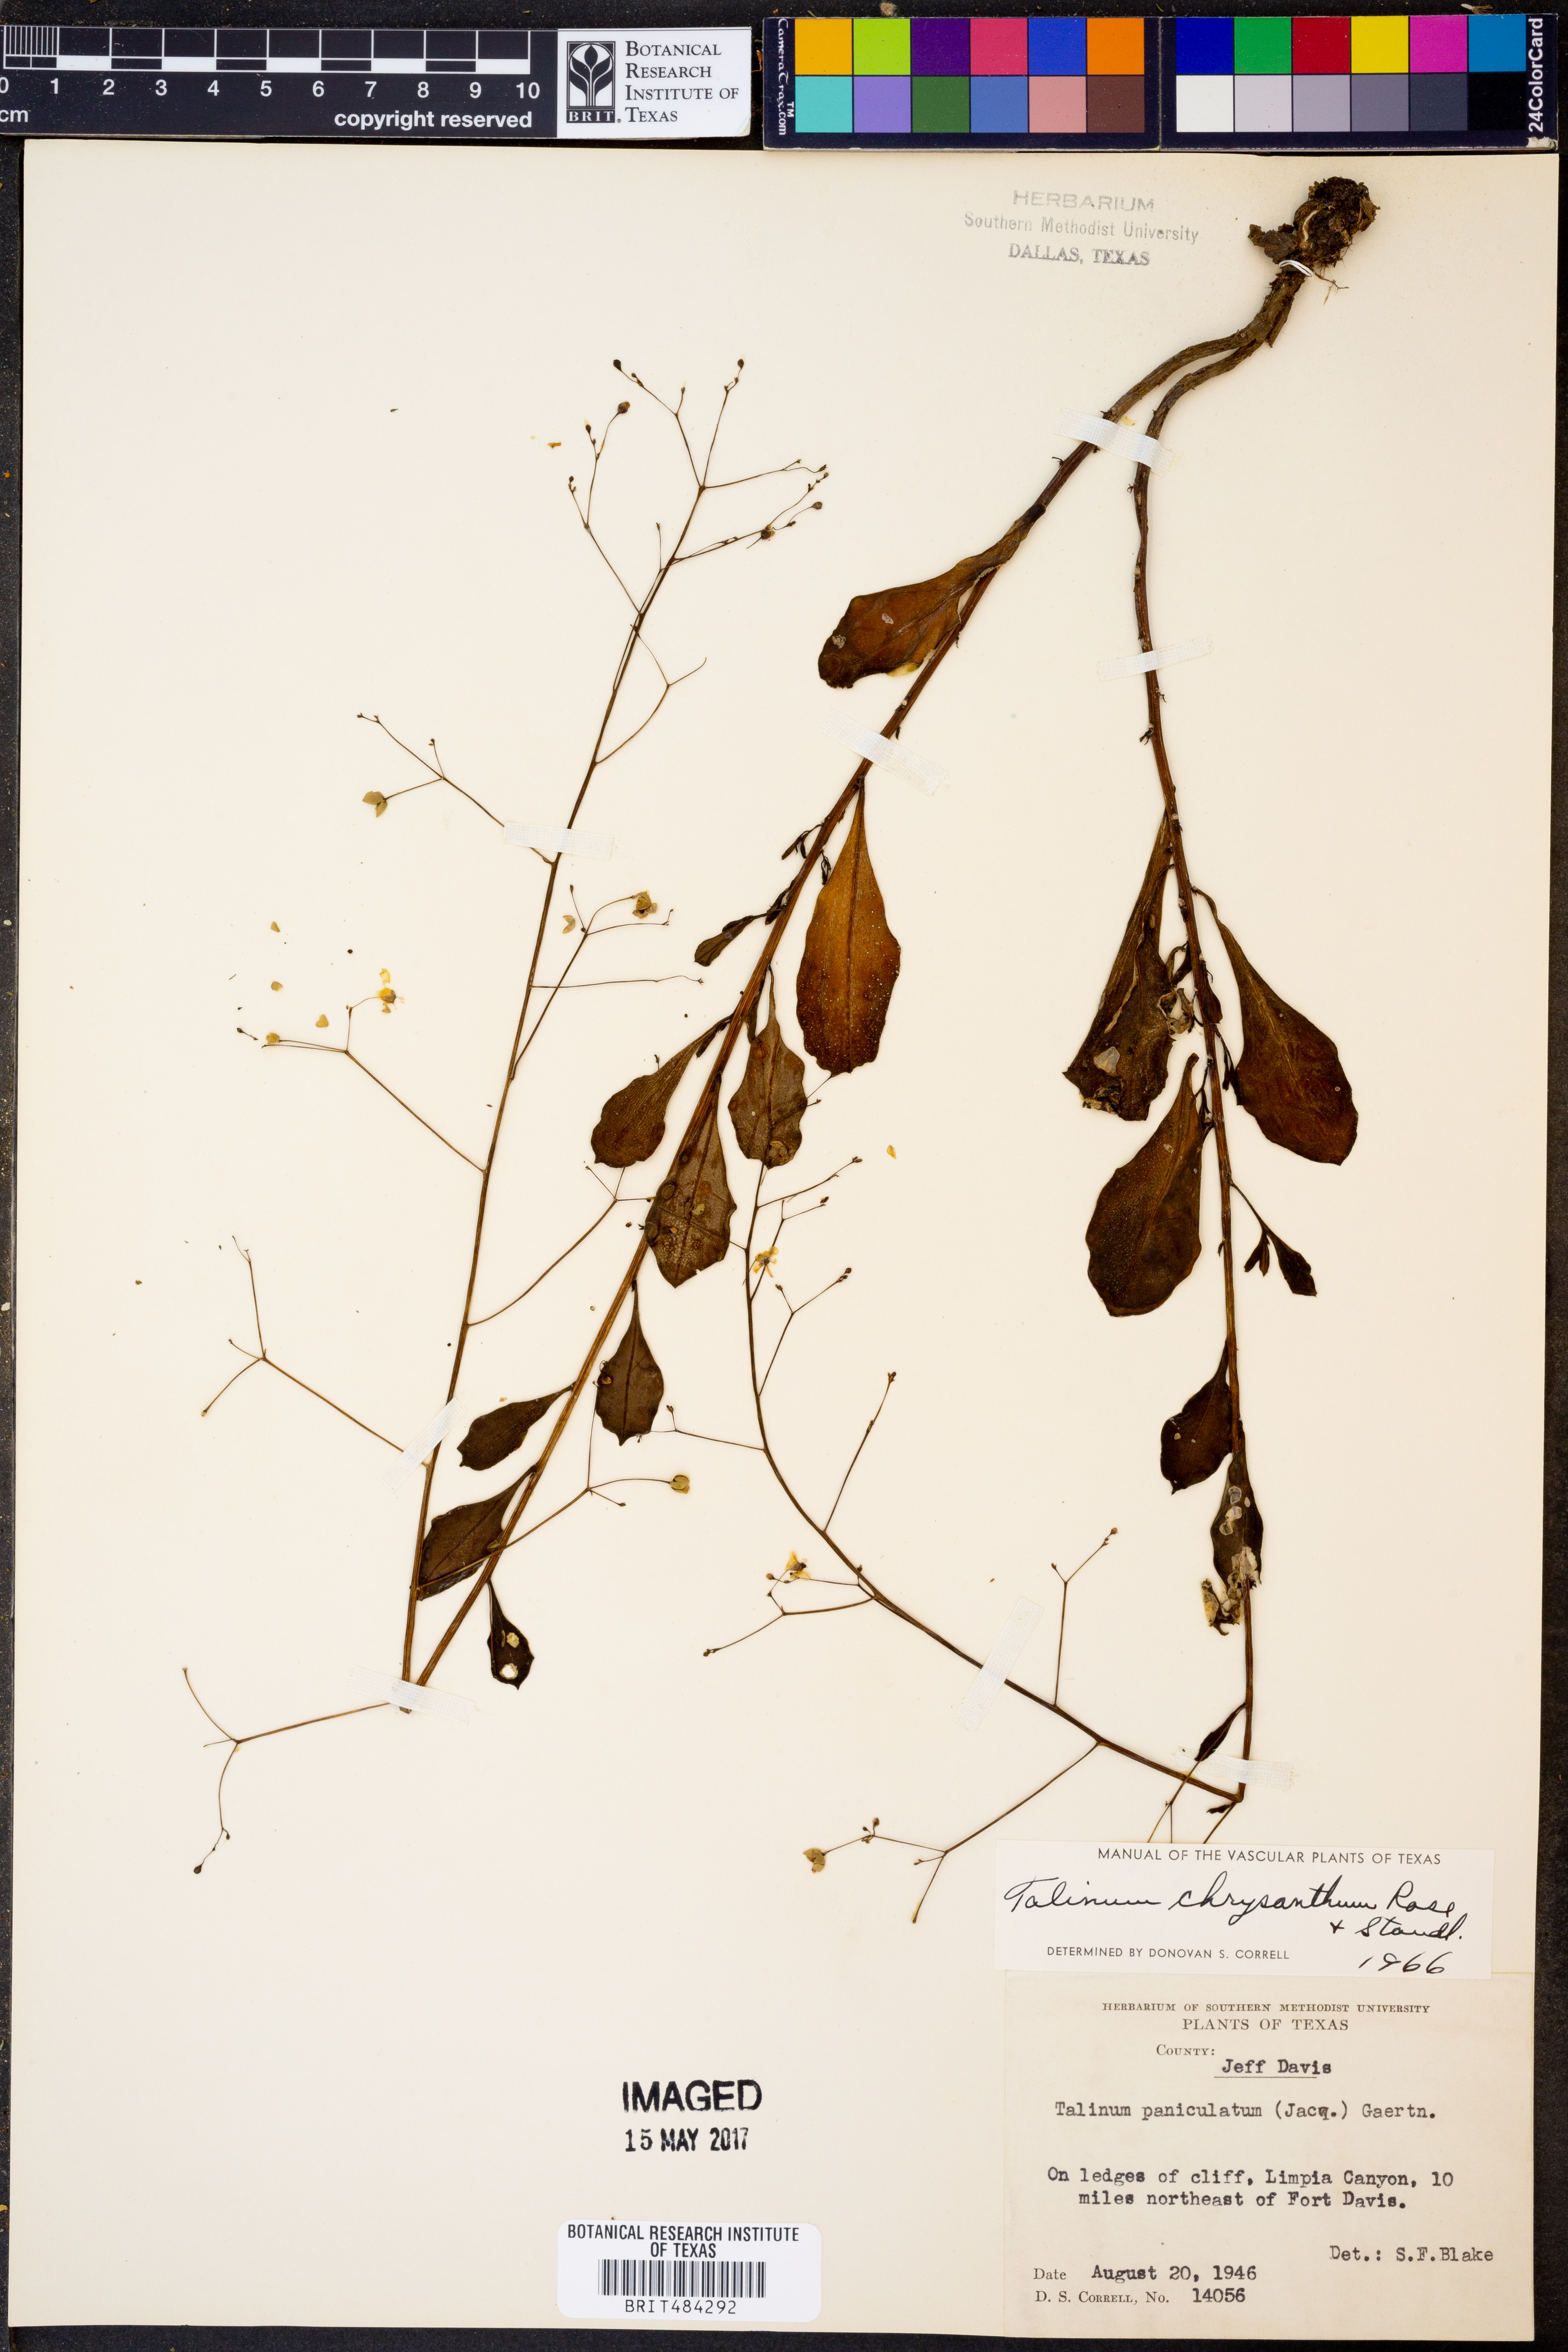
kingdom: Plantae
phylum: Tracheophyta
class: Magnoliopsida
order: Caryophyllales
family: Talinaceae
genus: Talinum
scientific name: Talinum paniculatum
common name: Jewels of opar
